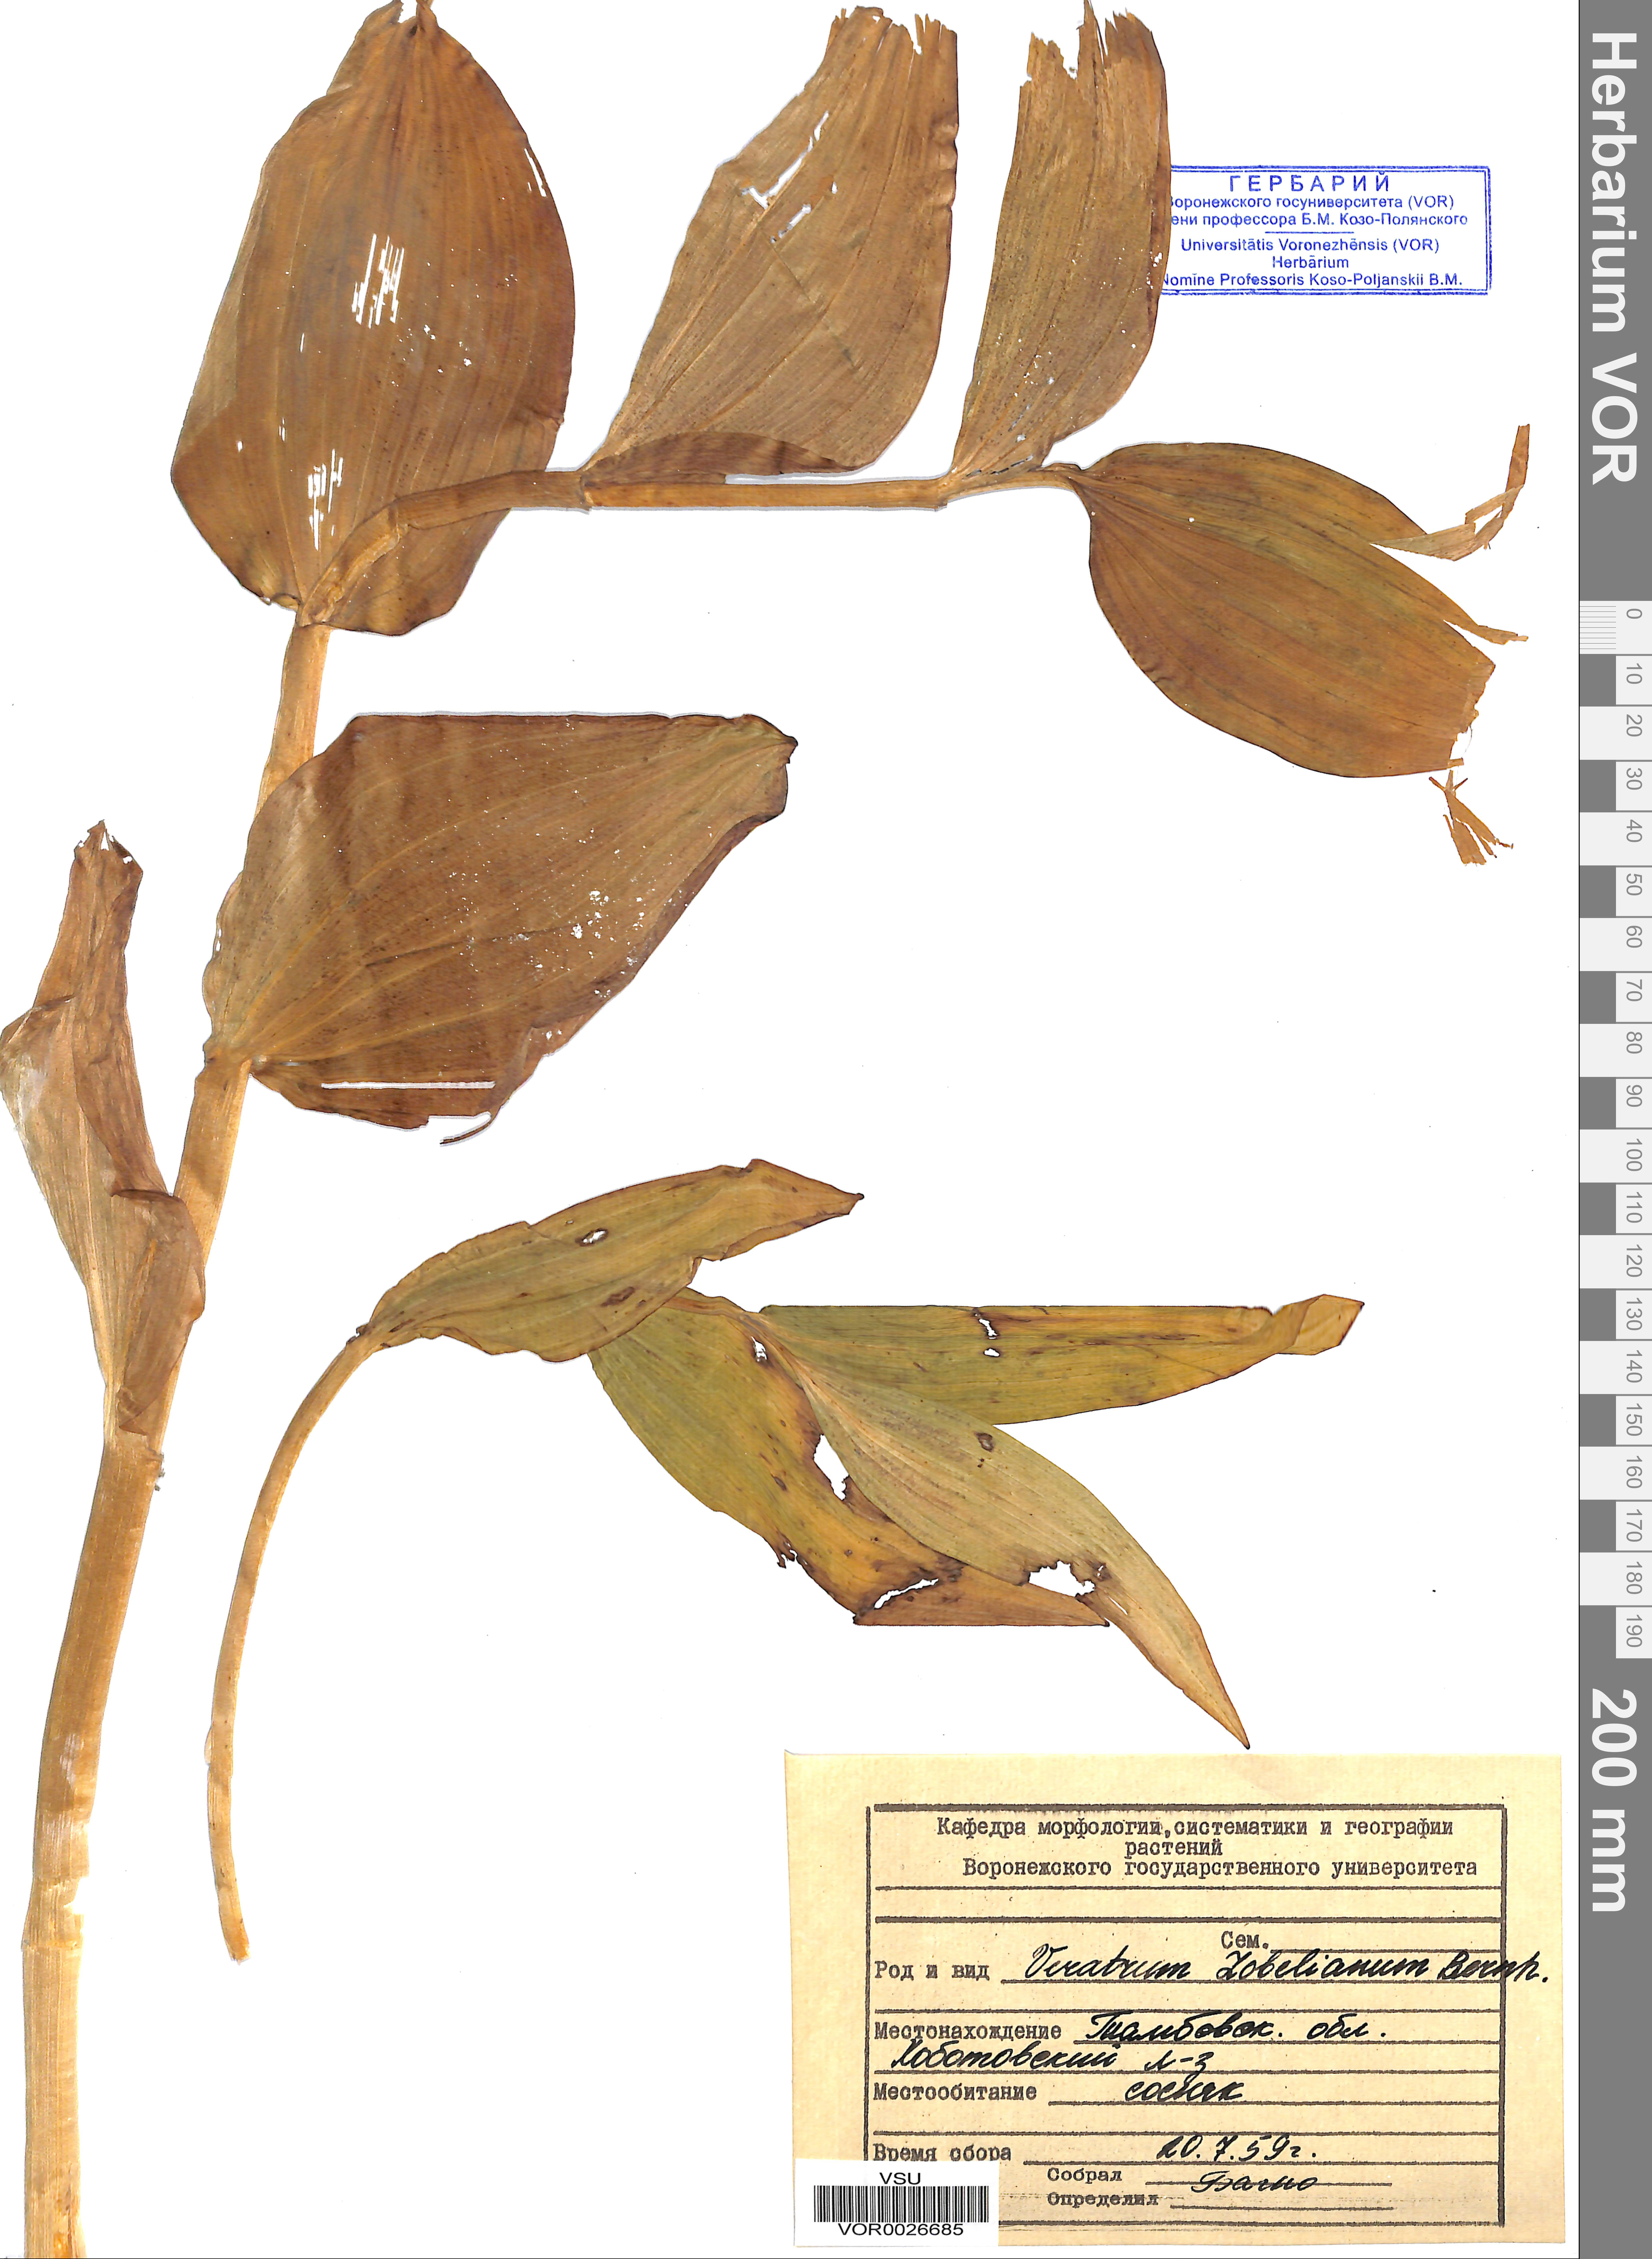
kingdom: Plantae
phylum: Tracheophyta
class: Liliopsida
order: Liliales
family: Melanthiaceae
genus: Veratrum
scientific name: Veratrum lobelianum
